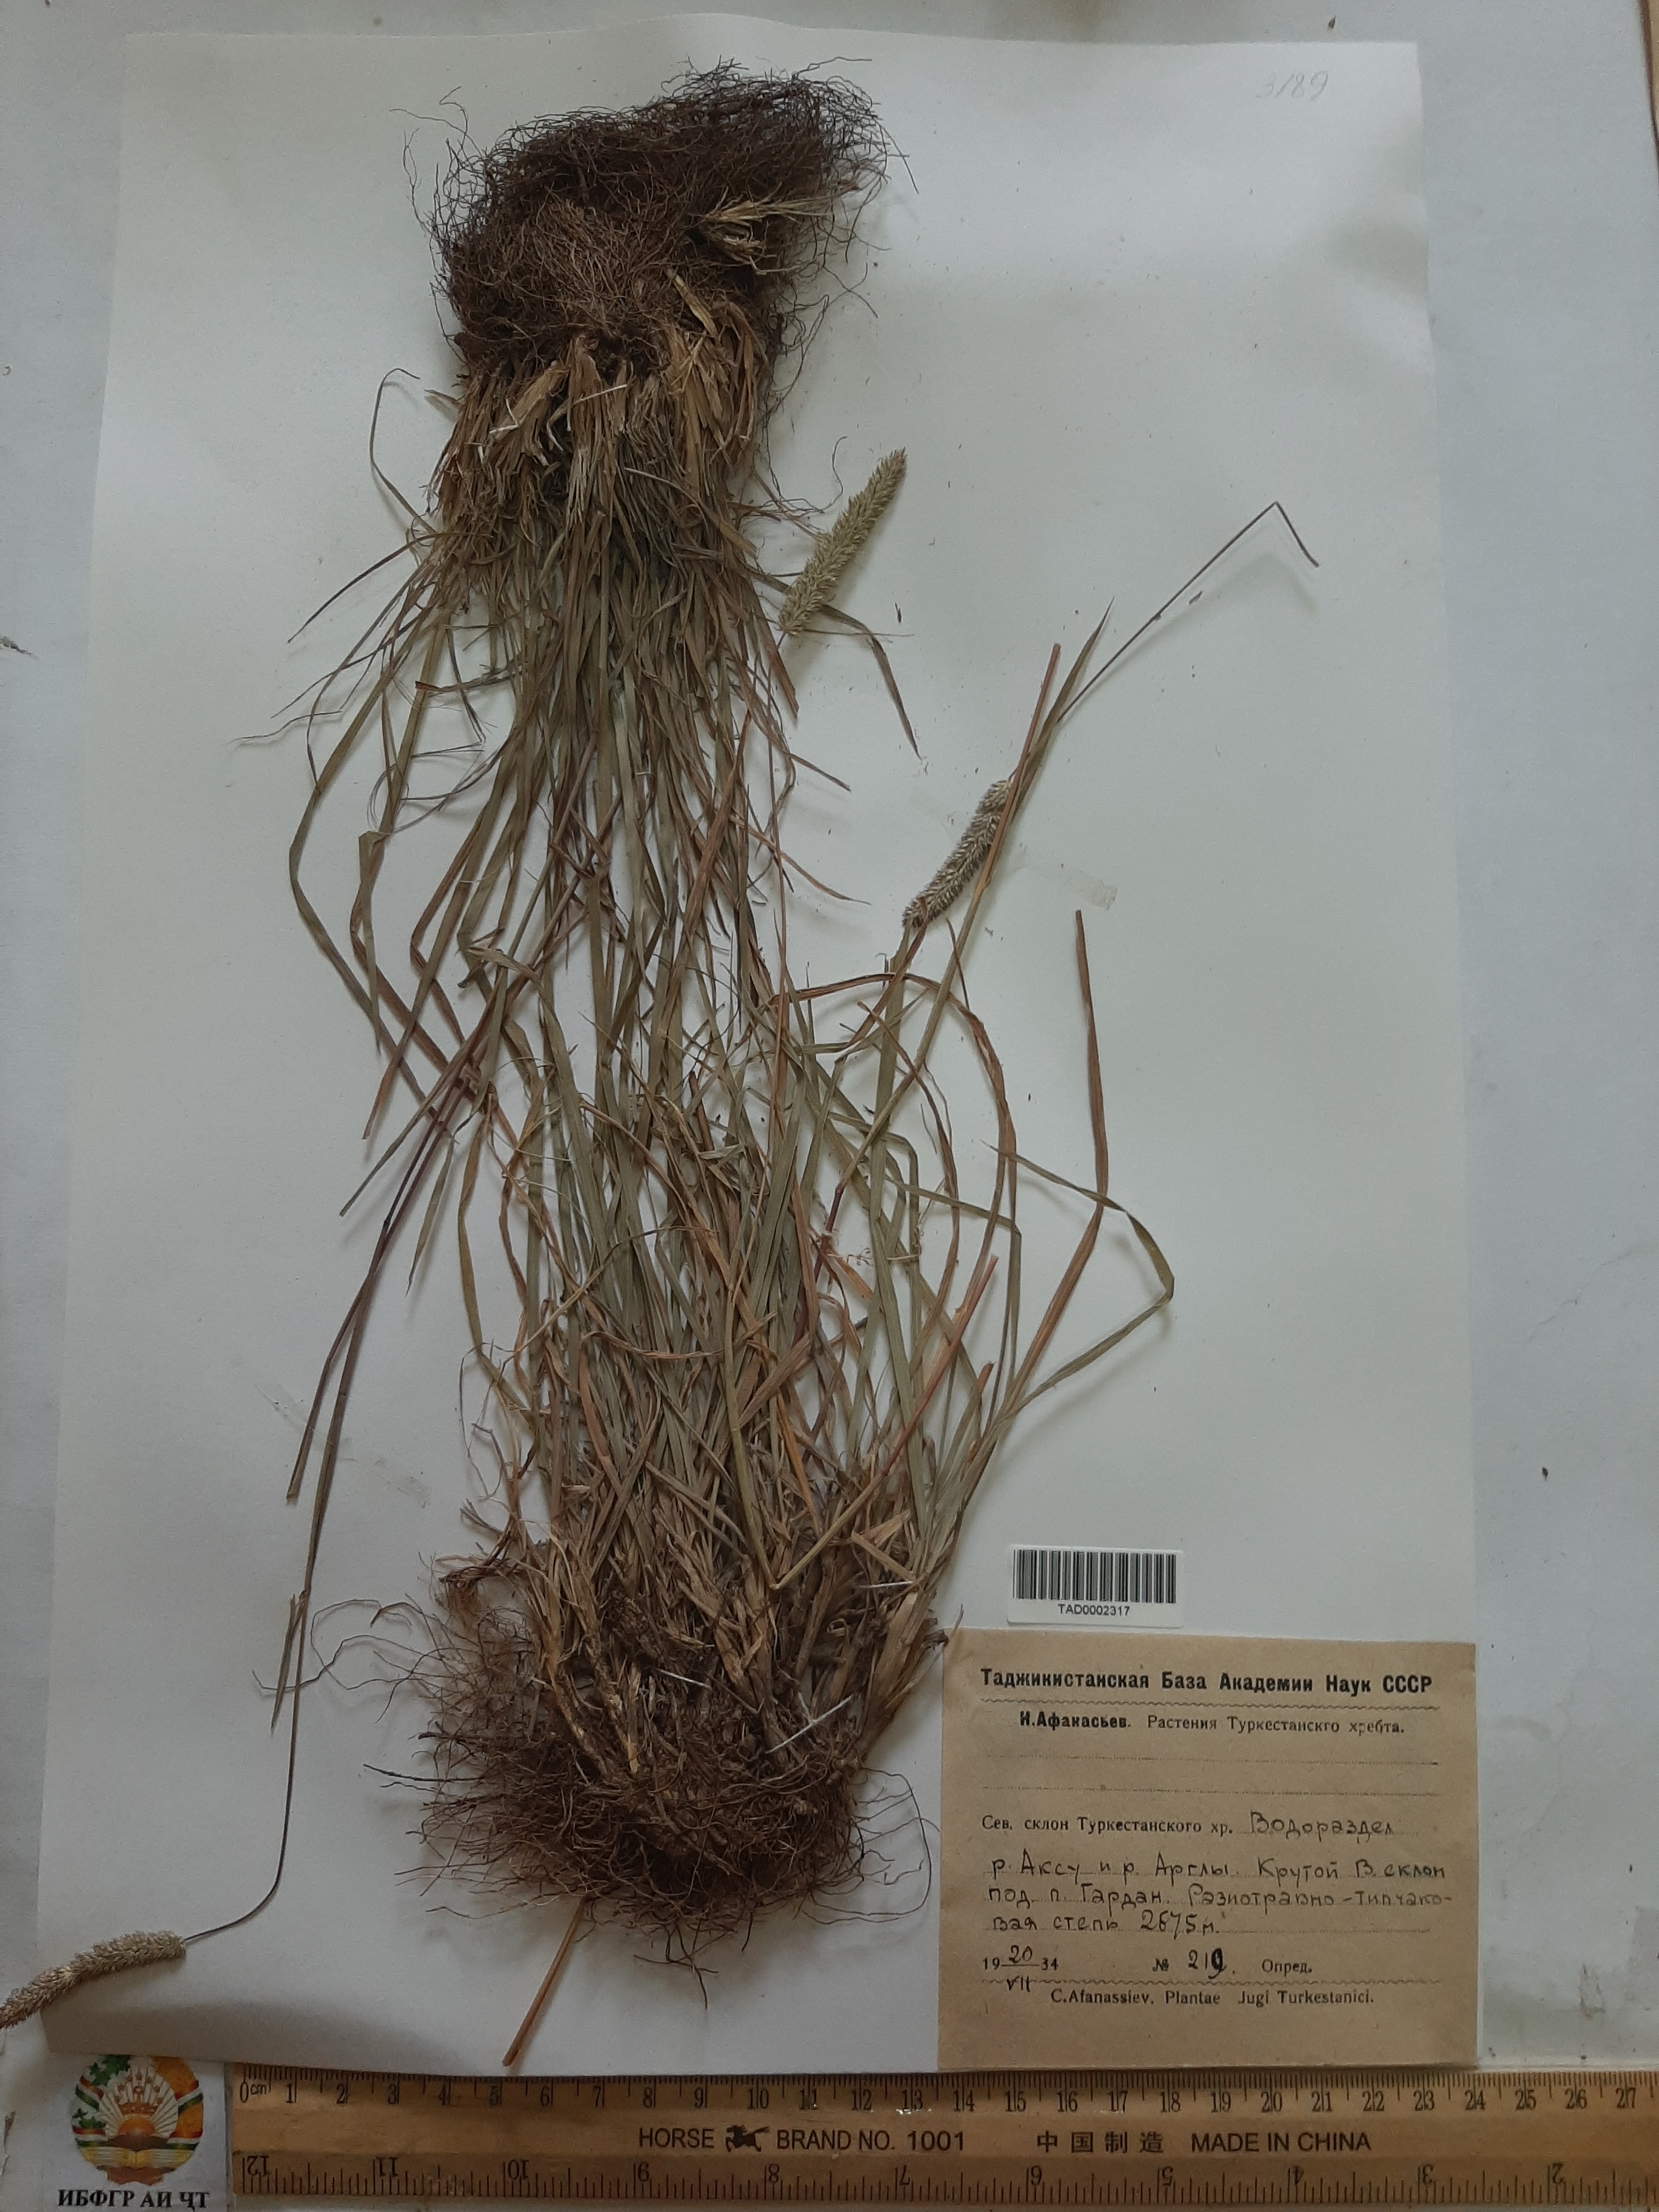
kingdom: Plantae
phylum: Tracheophyta
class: Liliopsida
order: Poales
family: Poaceae
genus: Phleum
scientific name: Phleum phleoides
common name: Purple-stem cat's-tail
